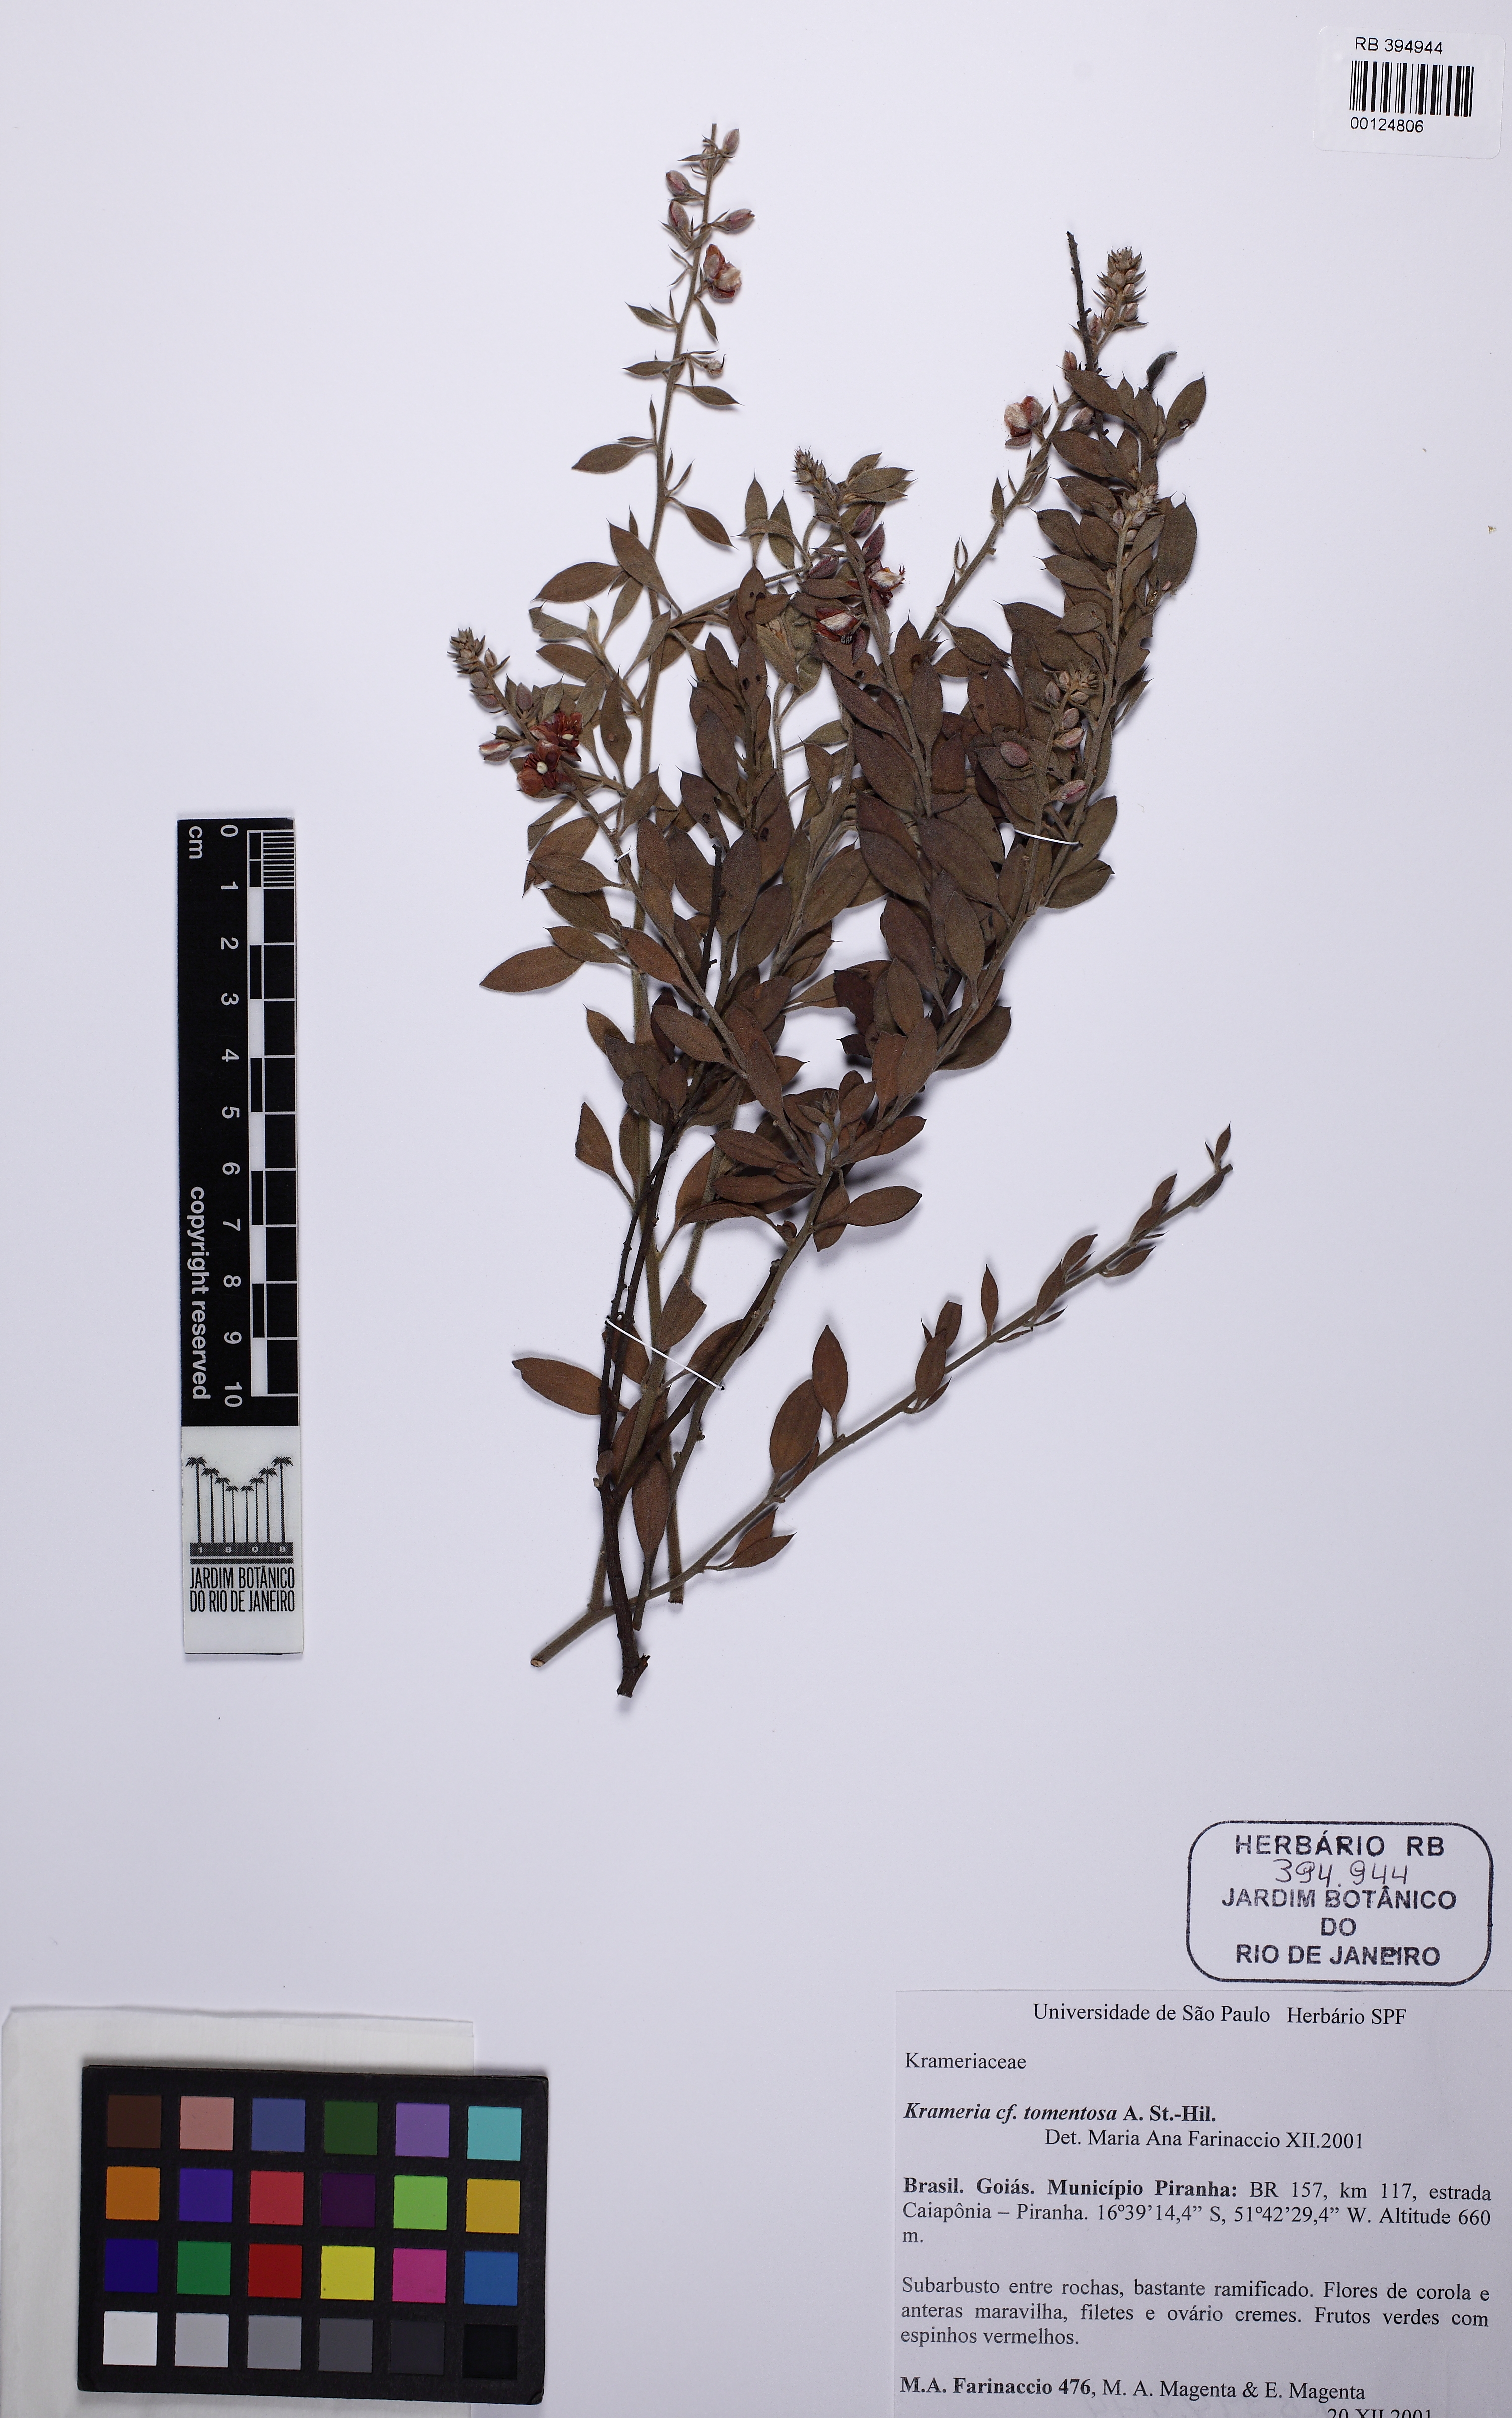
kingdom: Plantae
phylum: Tracheophyta
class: Magnoliopsida
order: Zygophyllales
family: Krameriaceae
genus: Krameria
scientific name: Krameria tomentosa
